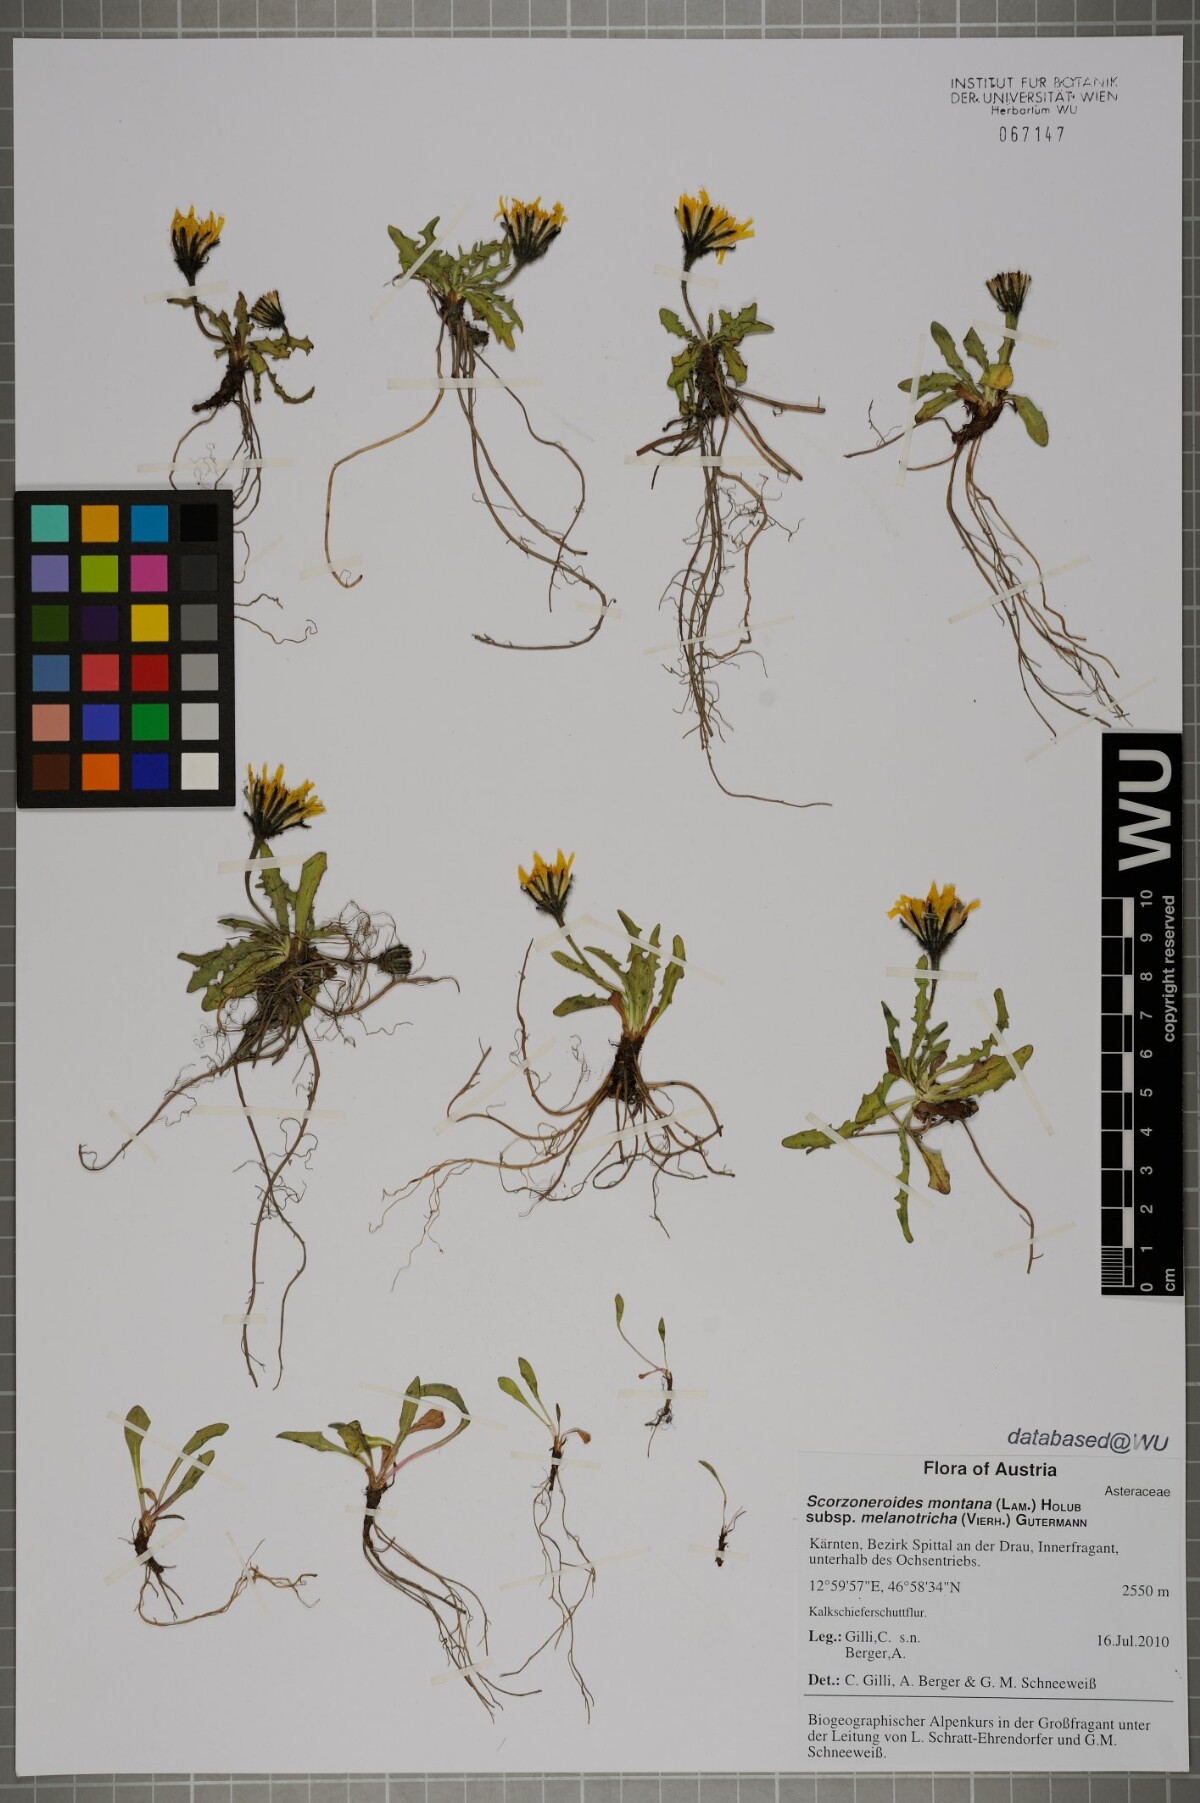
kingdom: Plantae
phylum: Tracheophyta
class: Magnoliopsida
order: Asterales
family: Asteraceae
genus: Scorzoneroides
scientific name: Scorzoneroides montana
